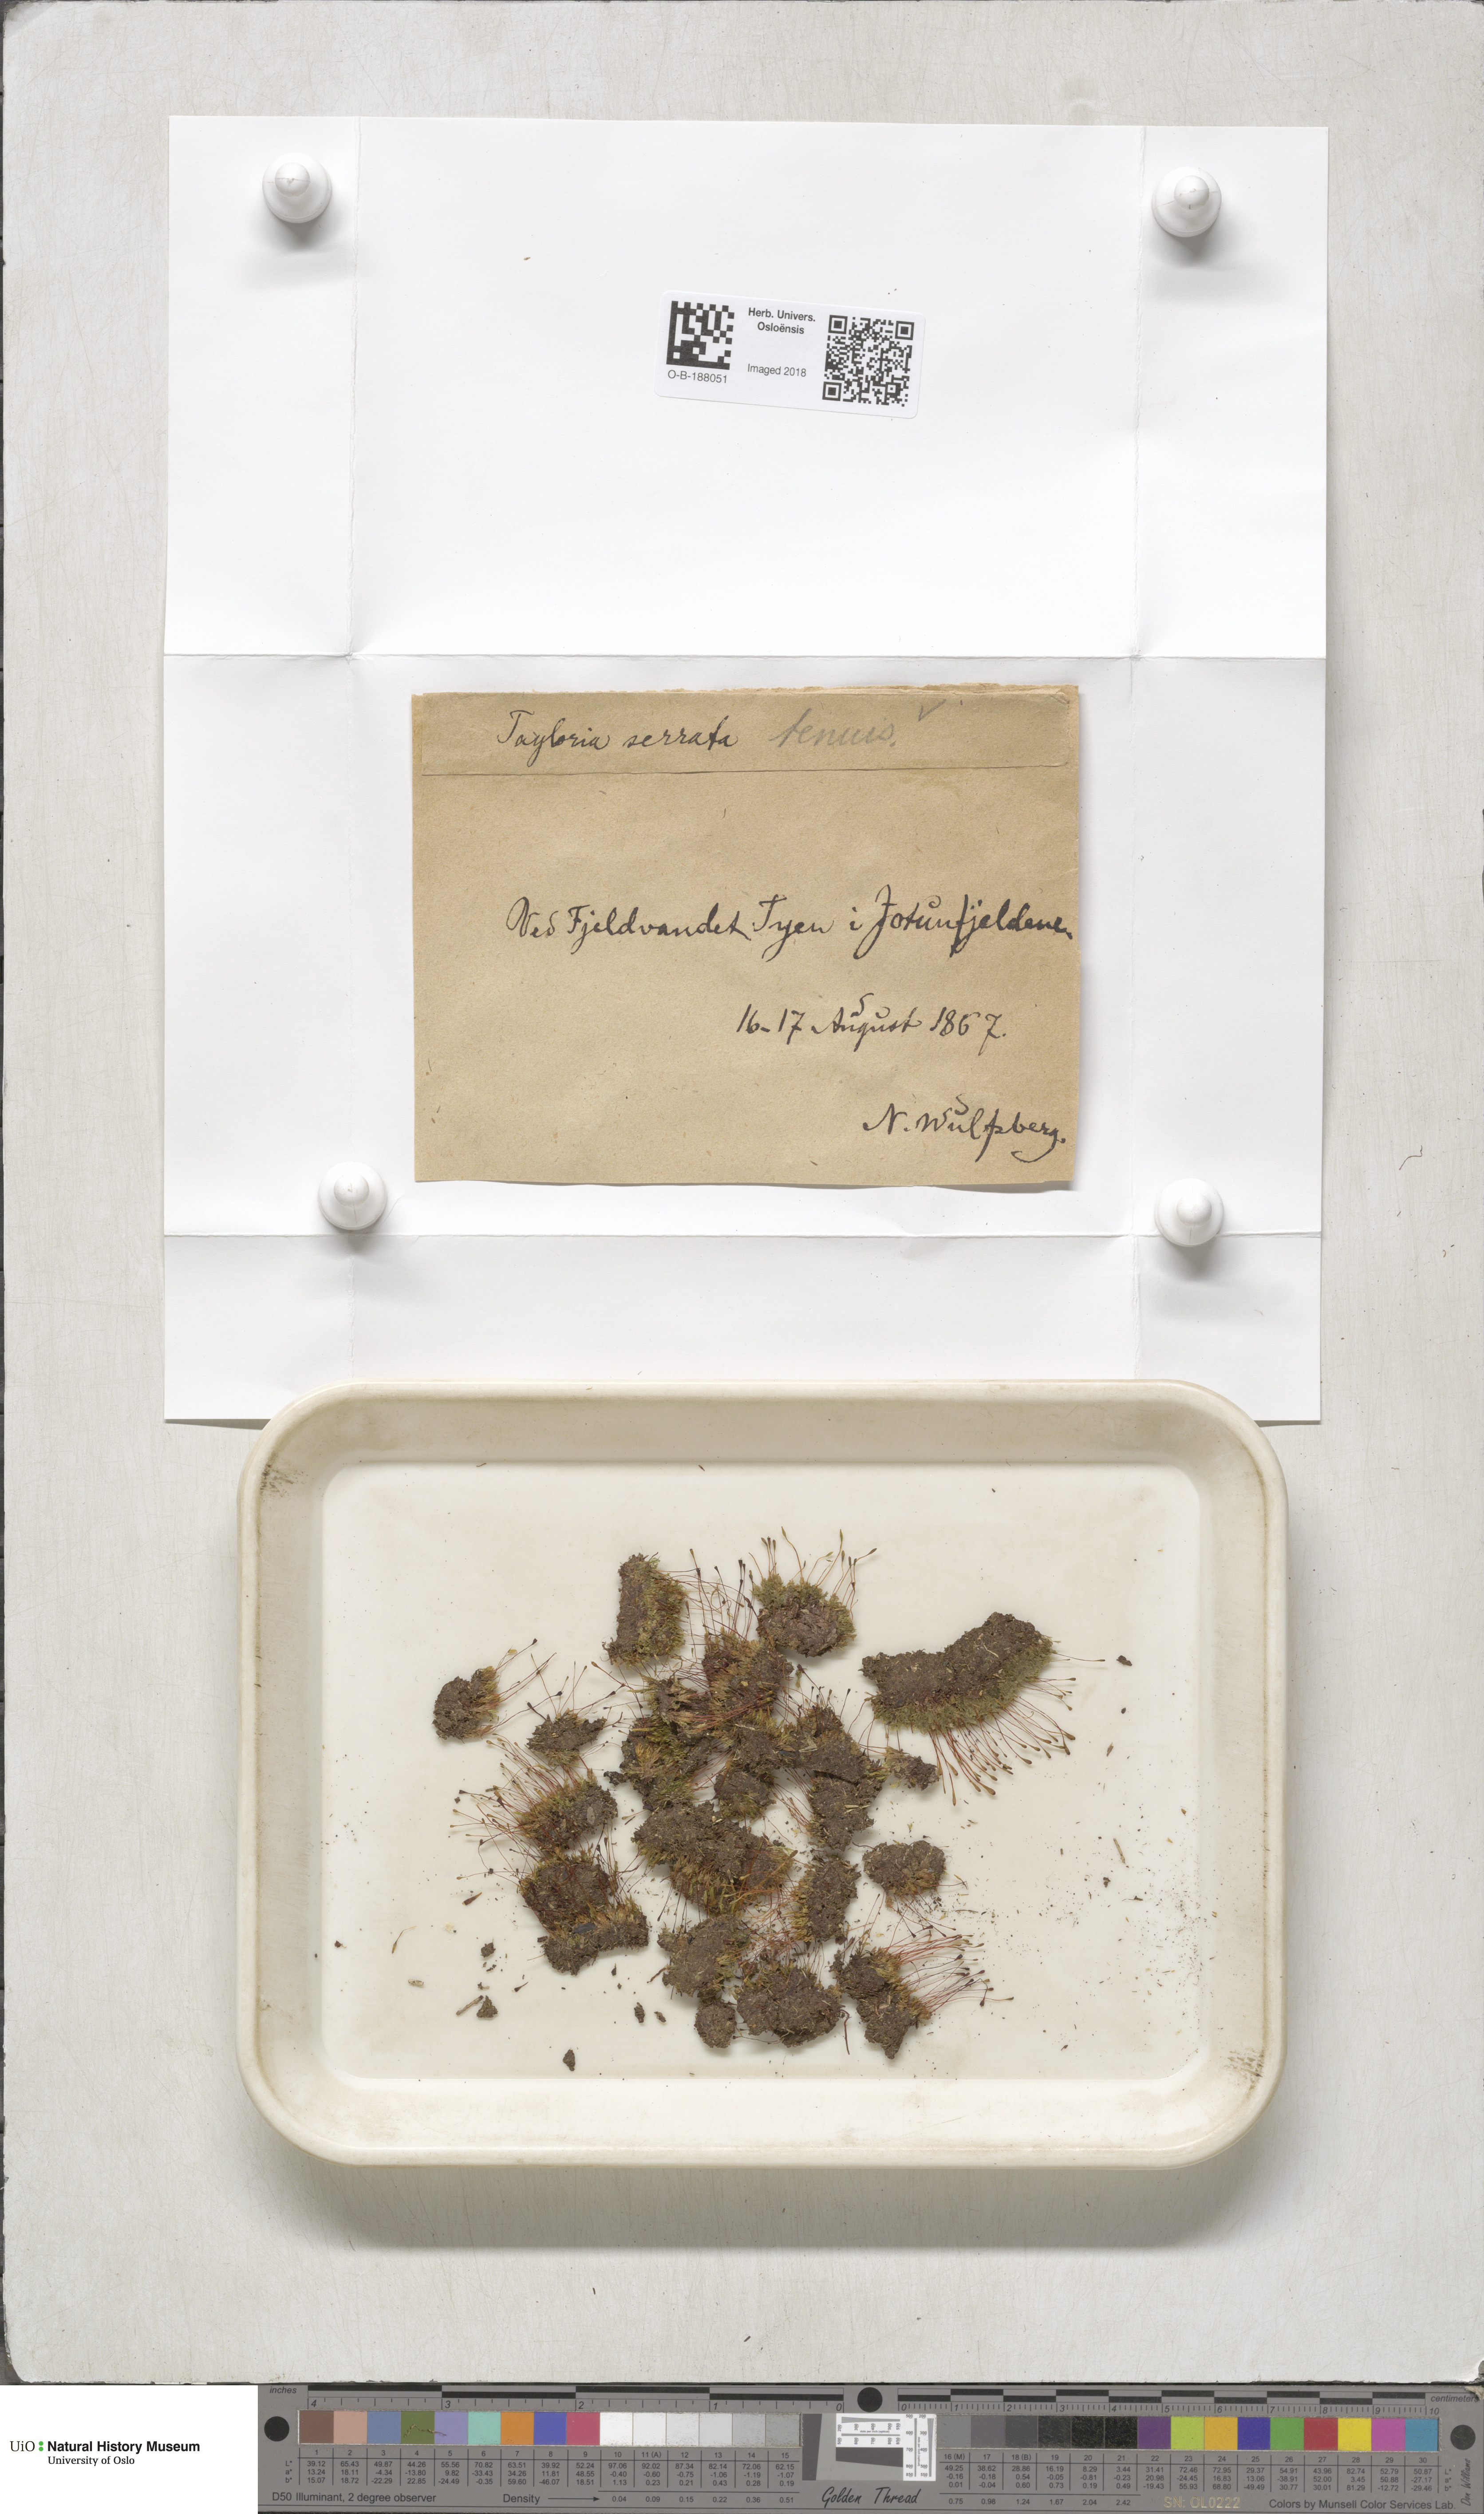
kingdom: Plantae
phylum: Bryophyta
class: Bryopsida
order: Splachnales
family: Splachnaceae
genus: Tayloria
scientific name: Tayloria tenuis
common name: Slender gland-moss
